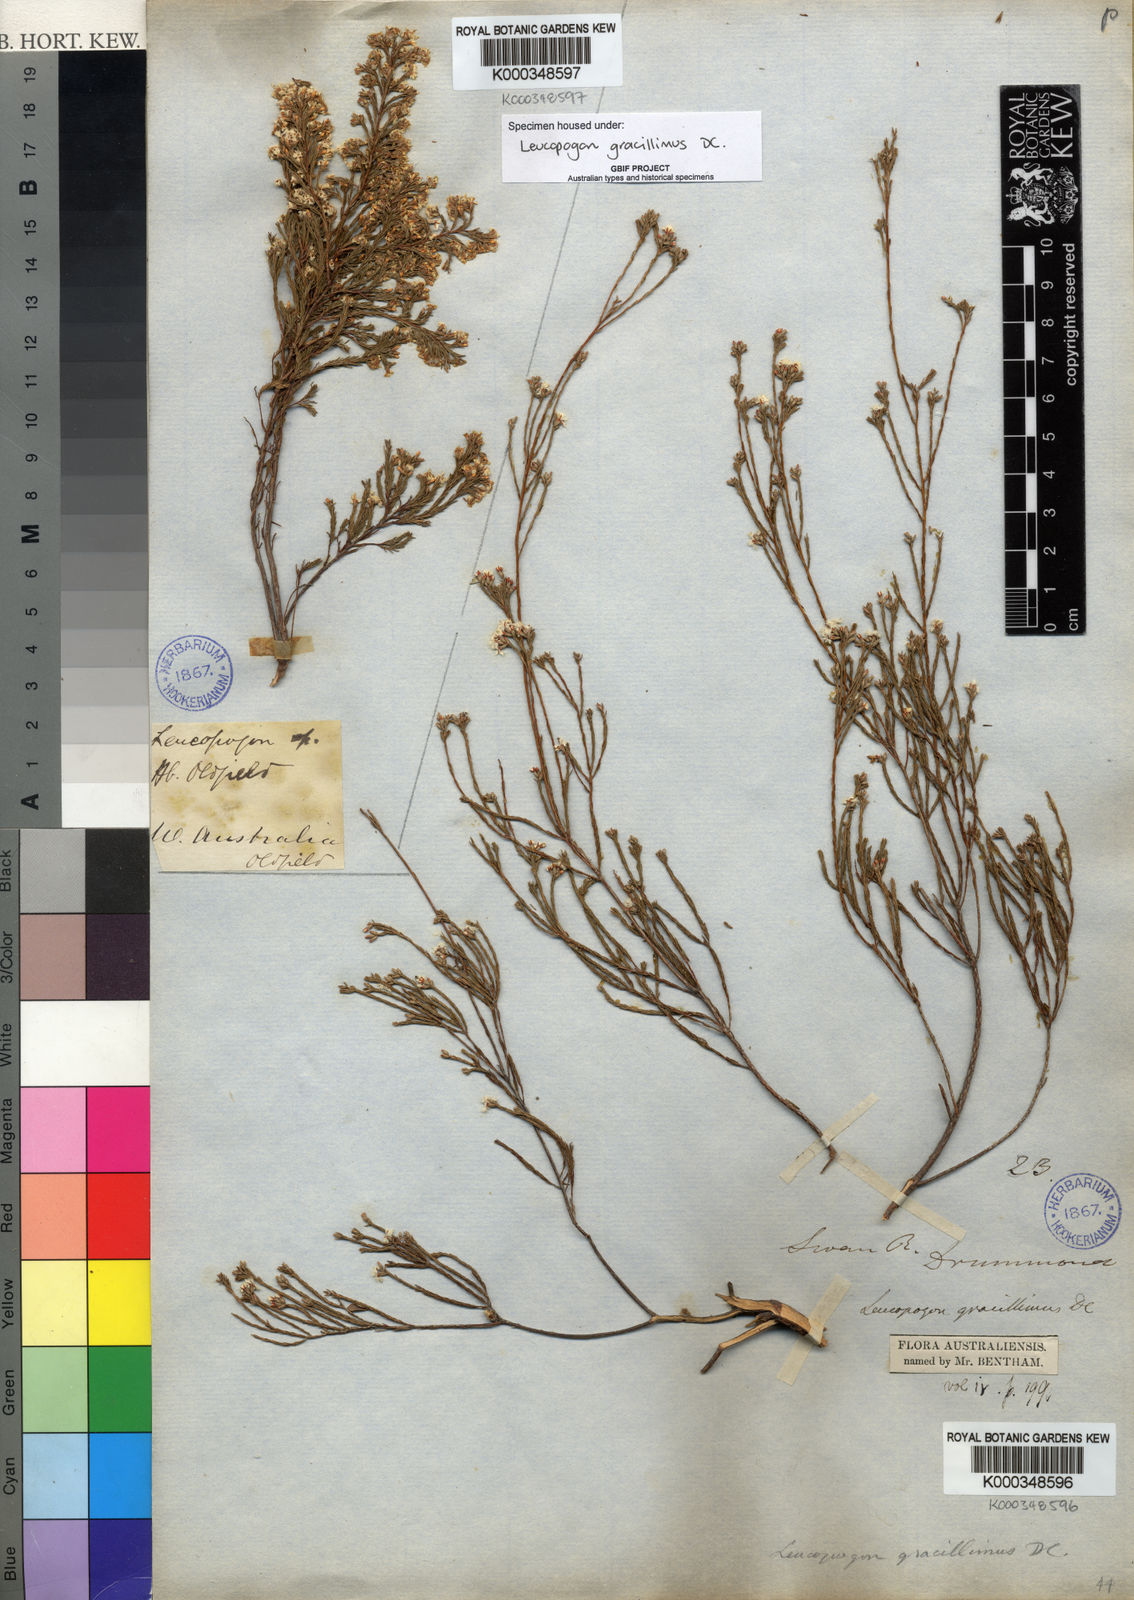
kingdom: Plantae
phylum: Tracheophyta
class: Magnoliopsida
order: Ericales
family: Ericaceae
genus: Leucopogon
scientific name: Leucopogon gracillimus
